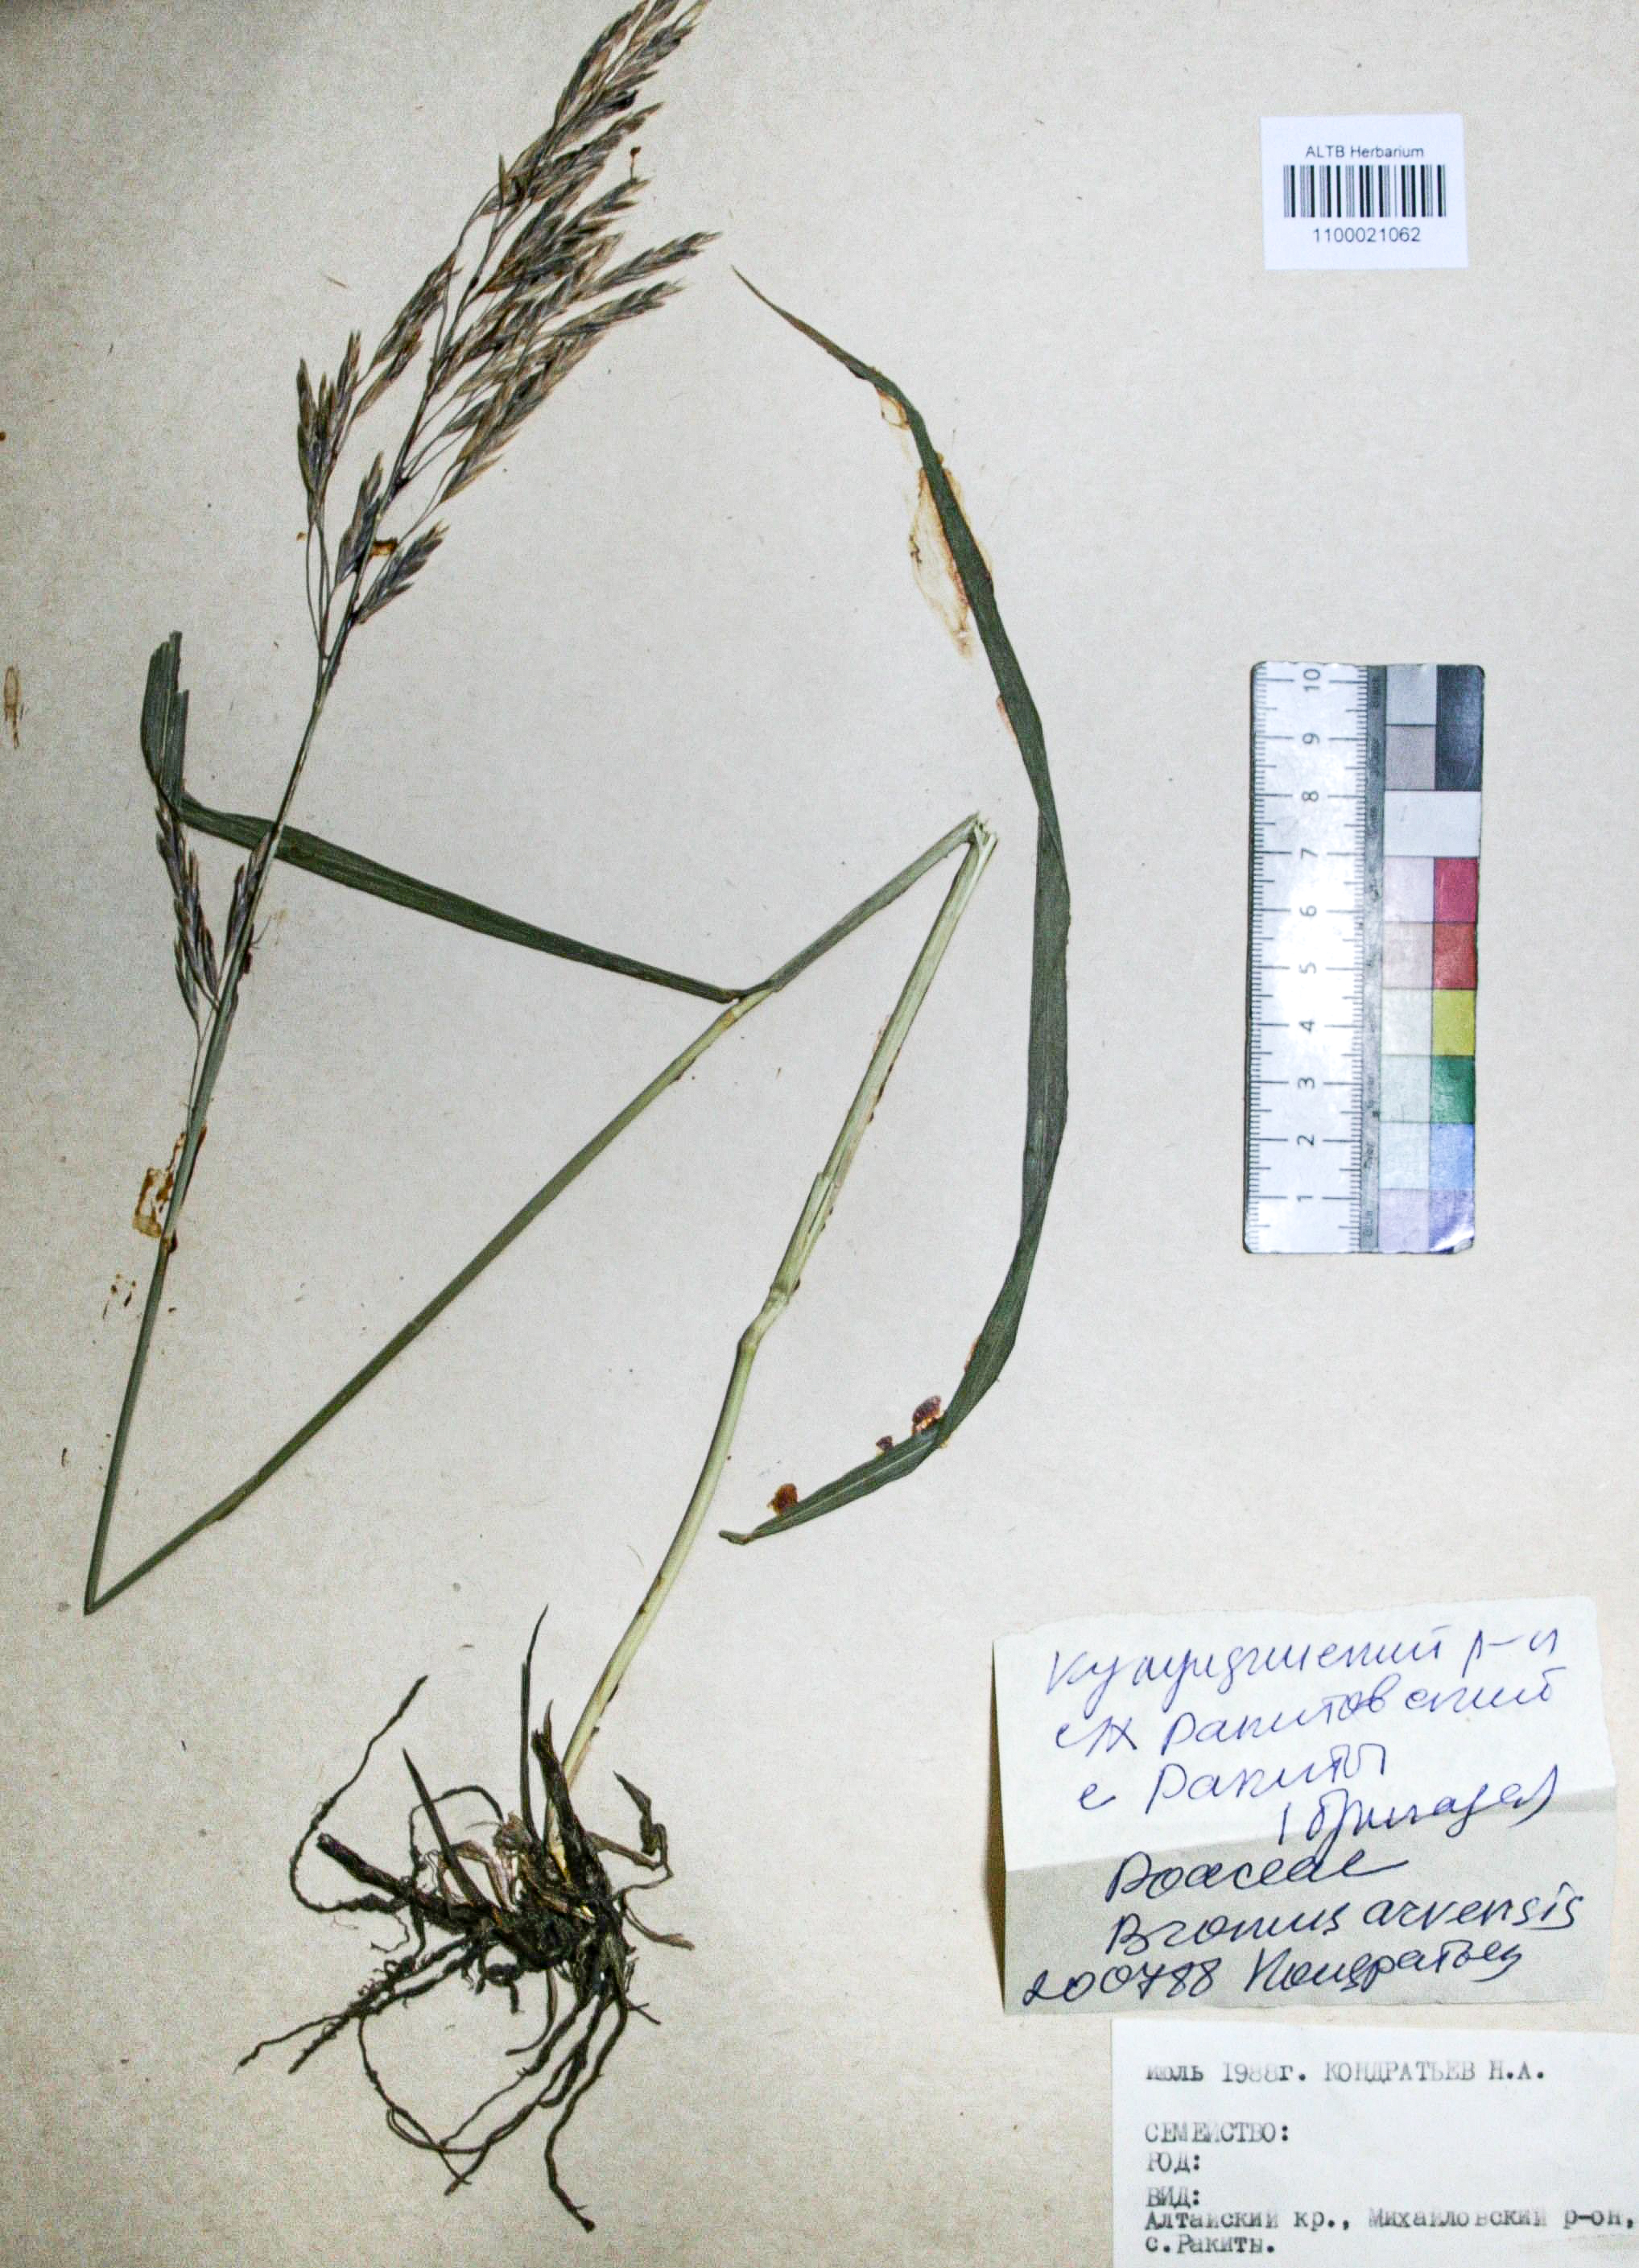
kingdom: Plantae
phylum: Tracheophyta
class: Liliopsida
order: Poales
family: Poaceae
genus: Bromus
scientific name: Bromus inermis
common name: Smooth brome
